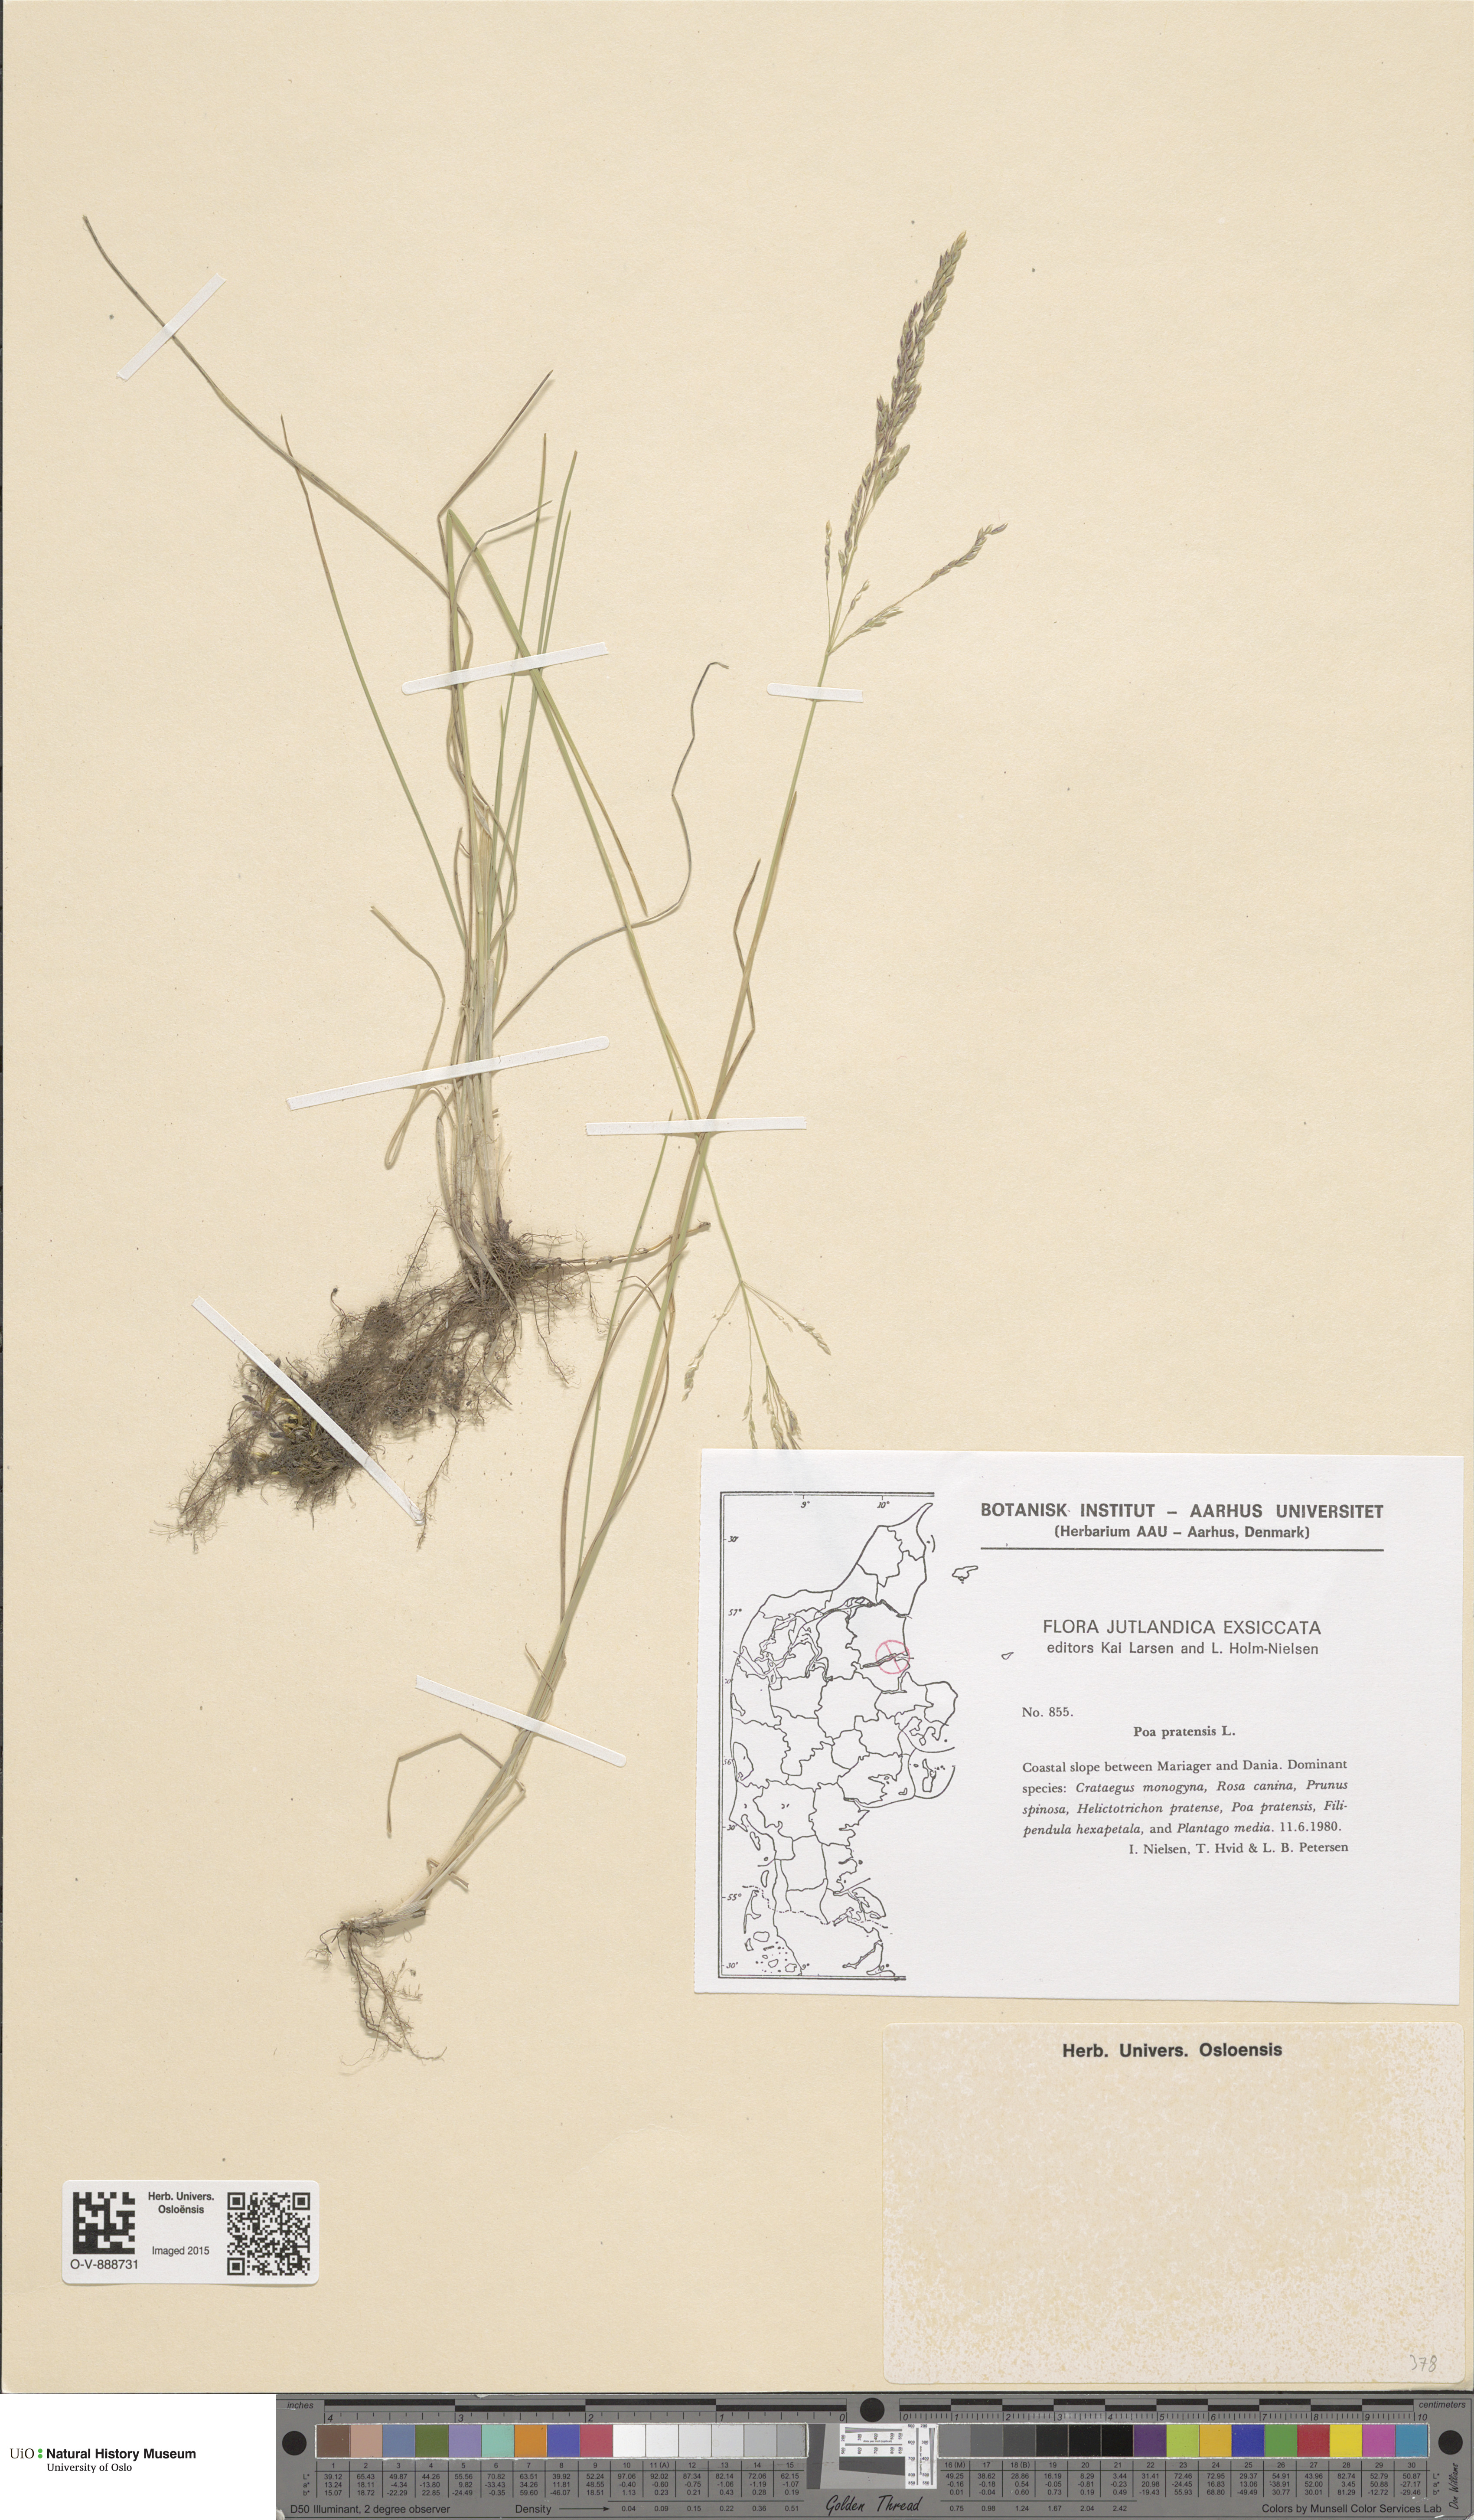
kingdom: Plantae
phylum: Tracheophyta
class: Liliopsida
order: Poales
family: Poaceae
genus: Poa
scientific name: Poa pratensis
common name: Kentucky bluegrass
